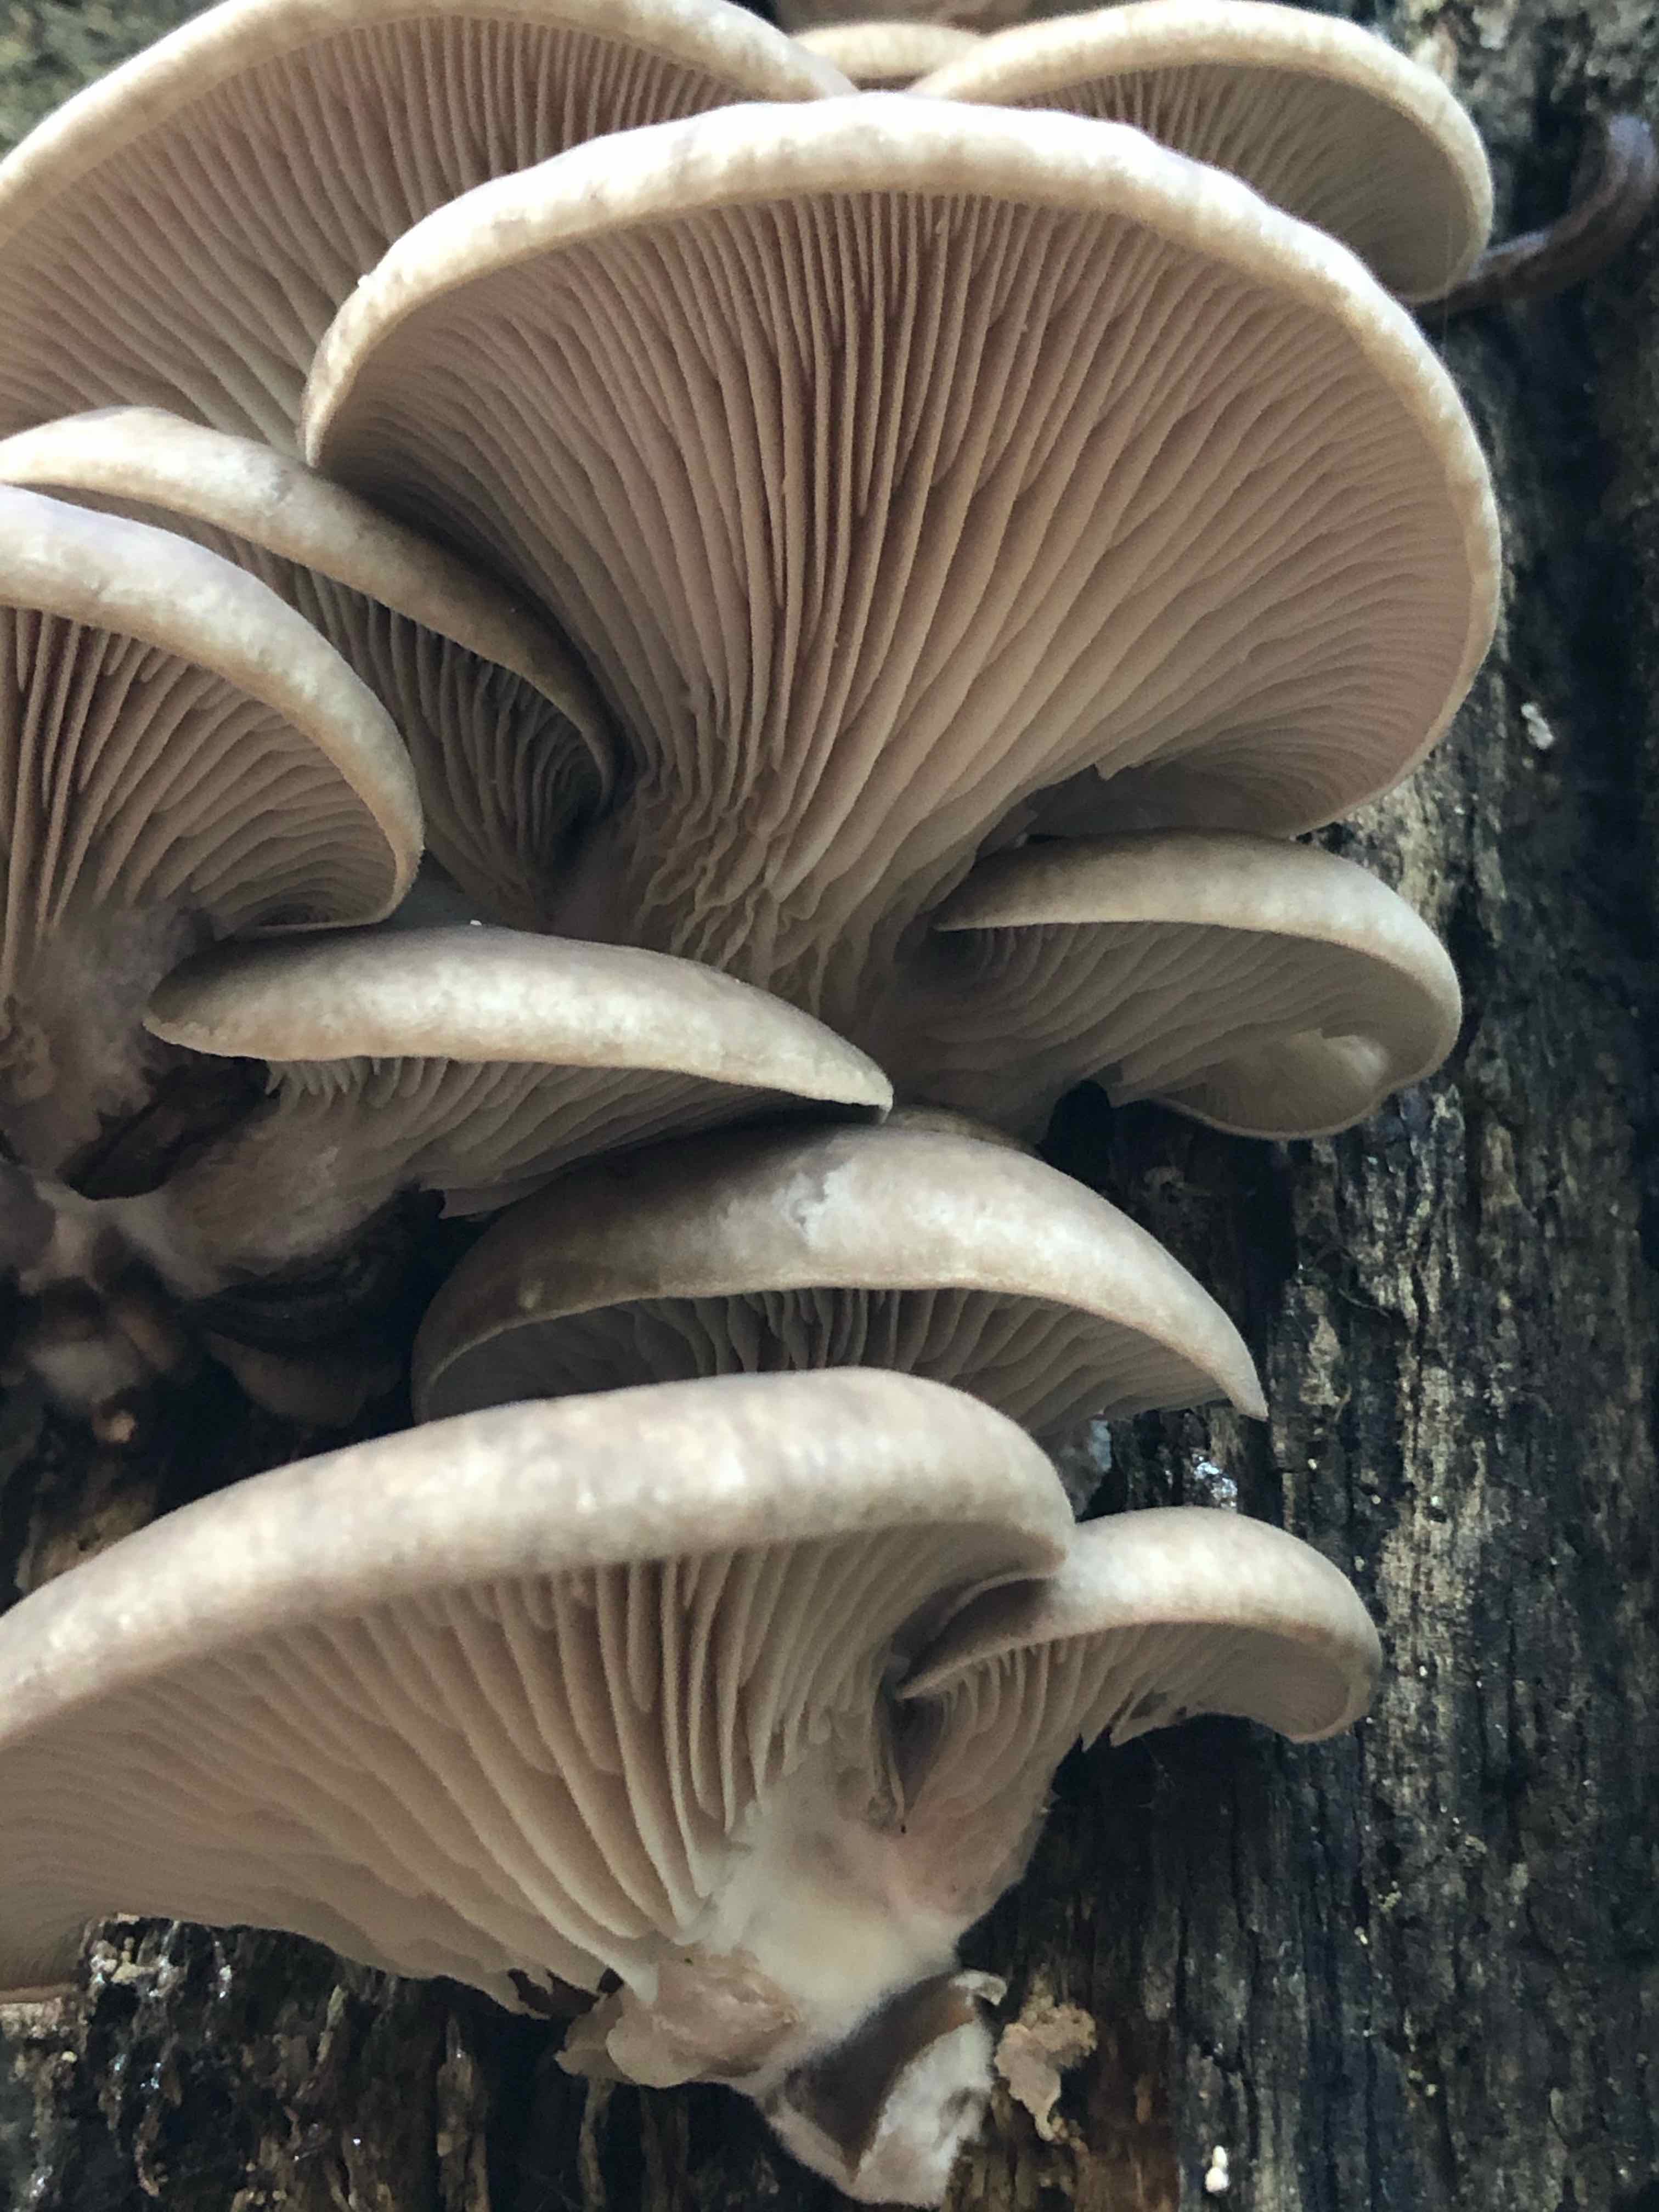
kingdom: Fungi
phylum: Basidiomycota
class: Agaricomycetes
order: Agaricales
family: Pleurotaceae
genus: Pleurotus
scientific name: Pleurotus ostreatus
